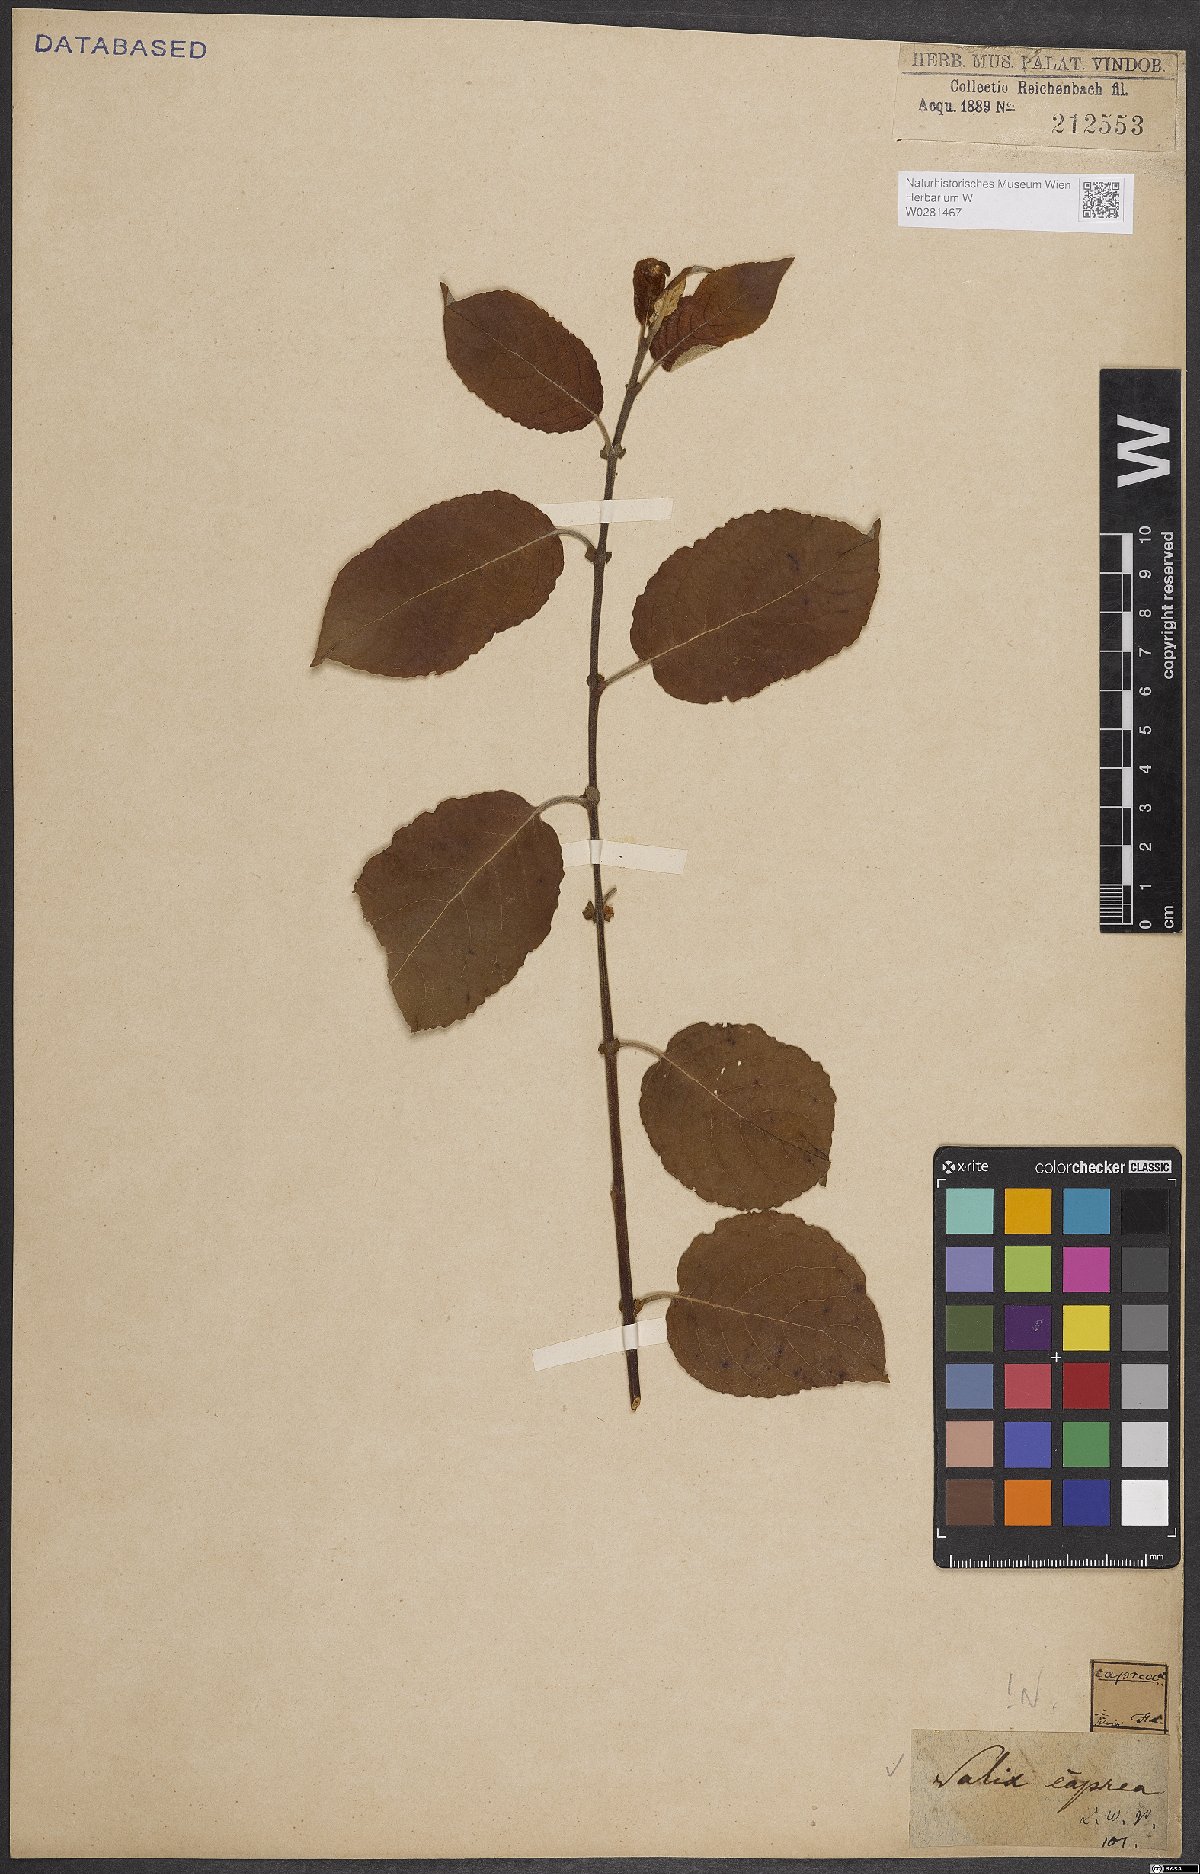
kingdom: Plantae
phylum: Tracheophyta
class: Magnoliopsida
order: Malpighiales
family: Salicaceae
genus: Salix
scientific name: Salix caprea
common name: Goat willow
